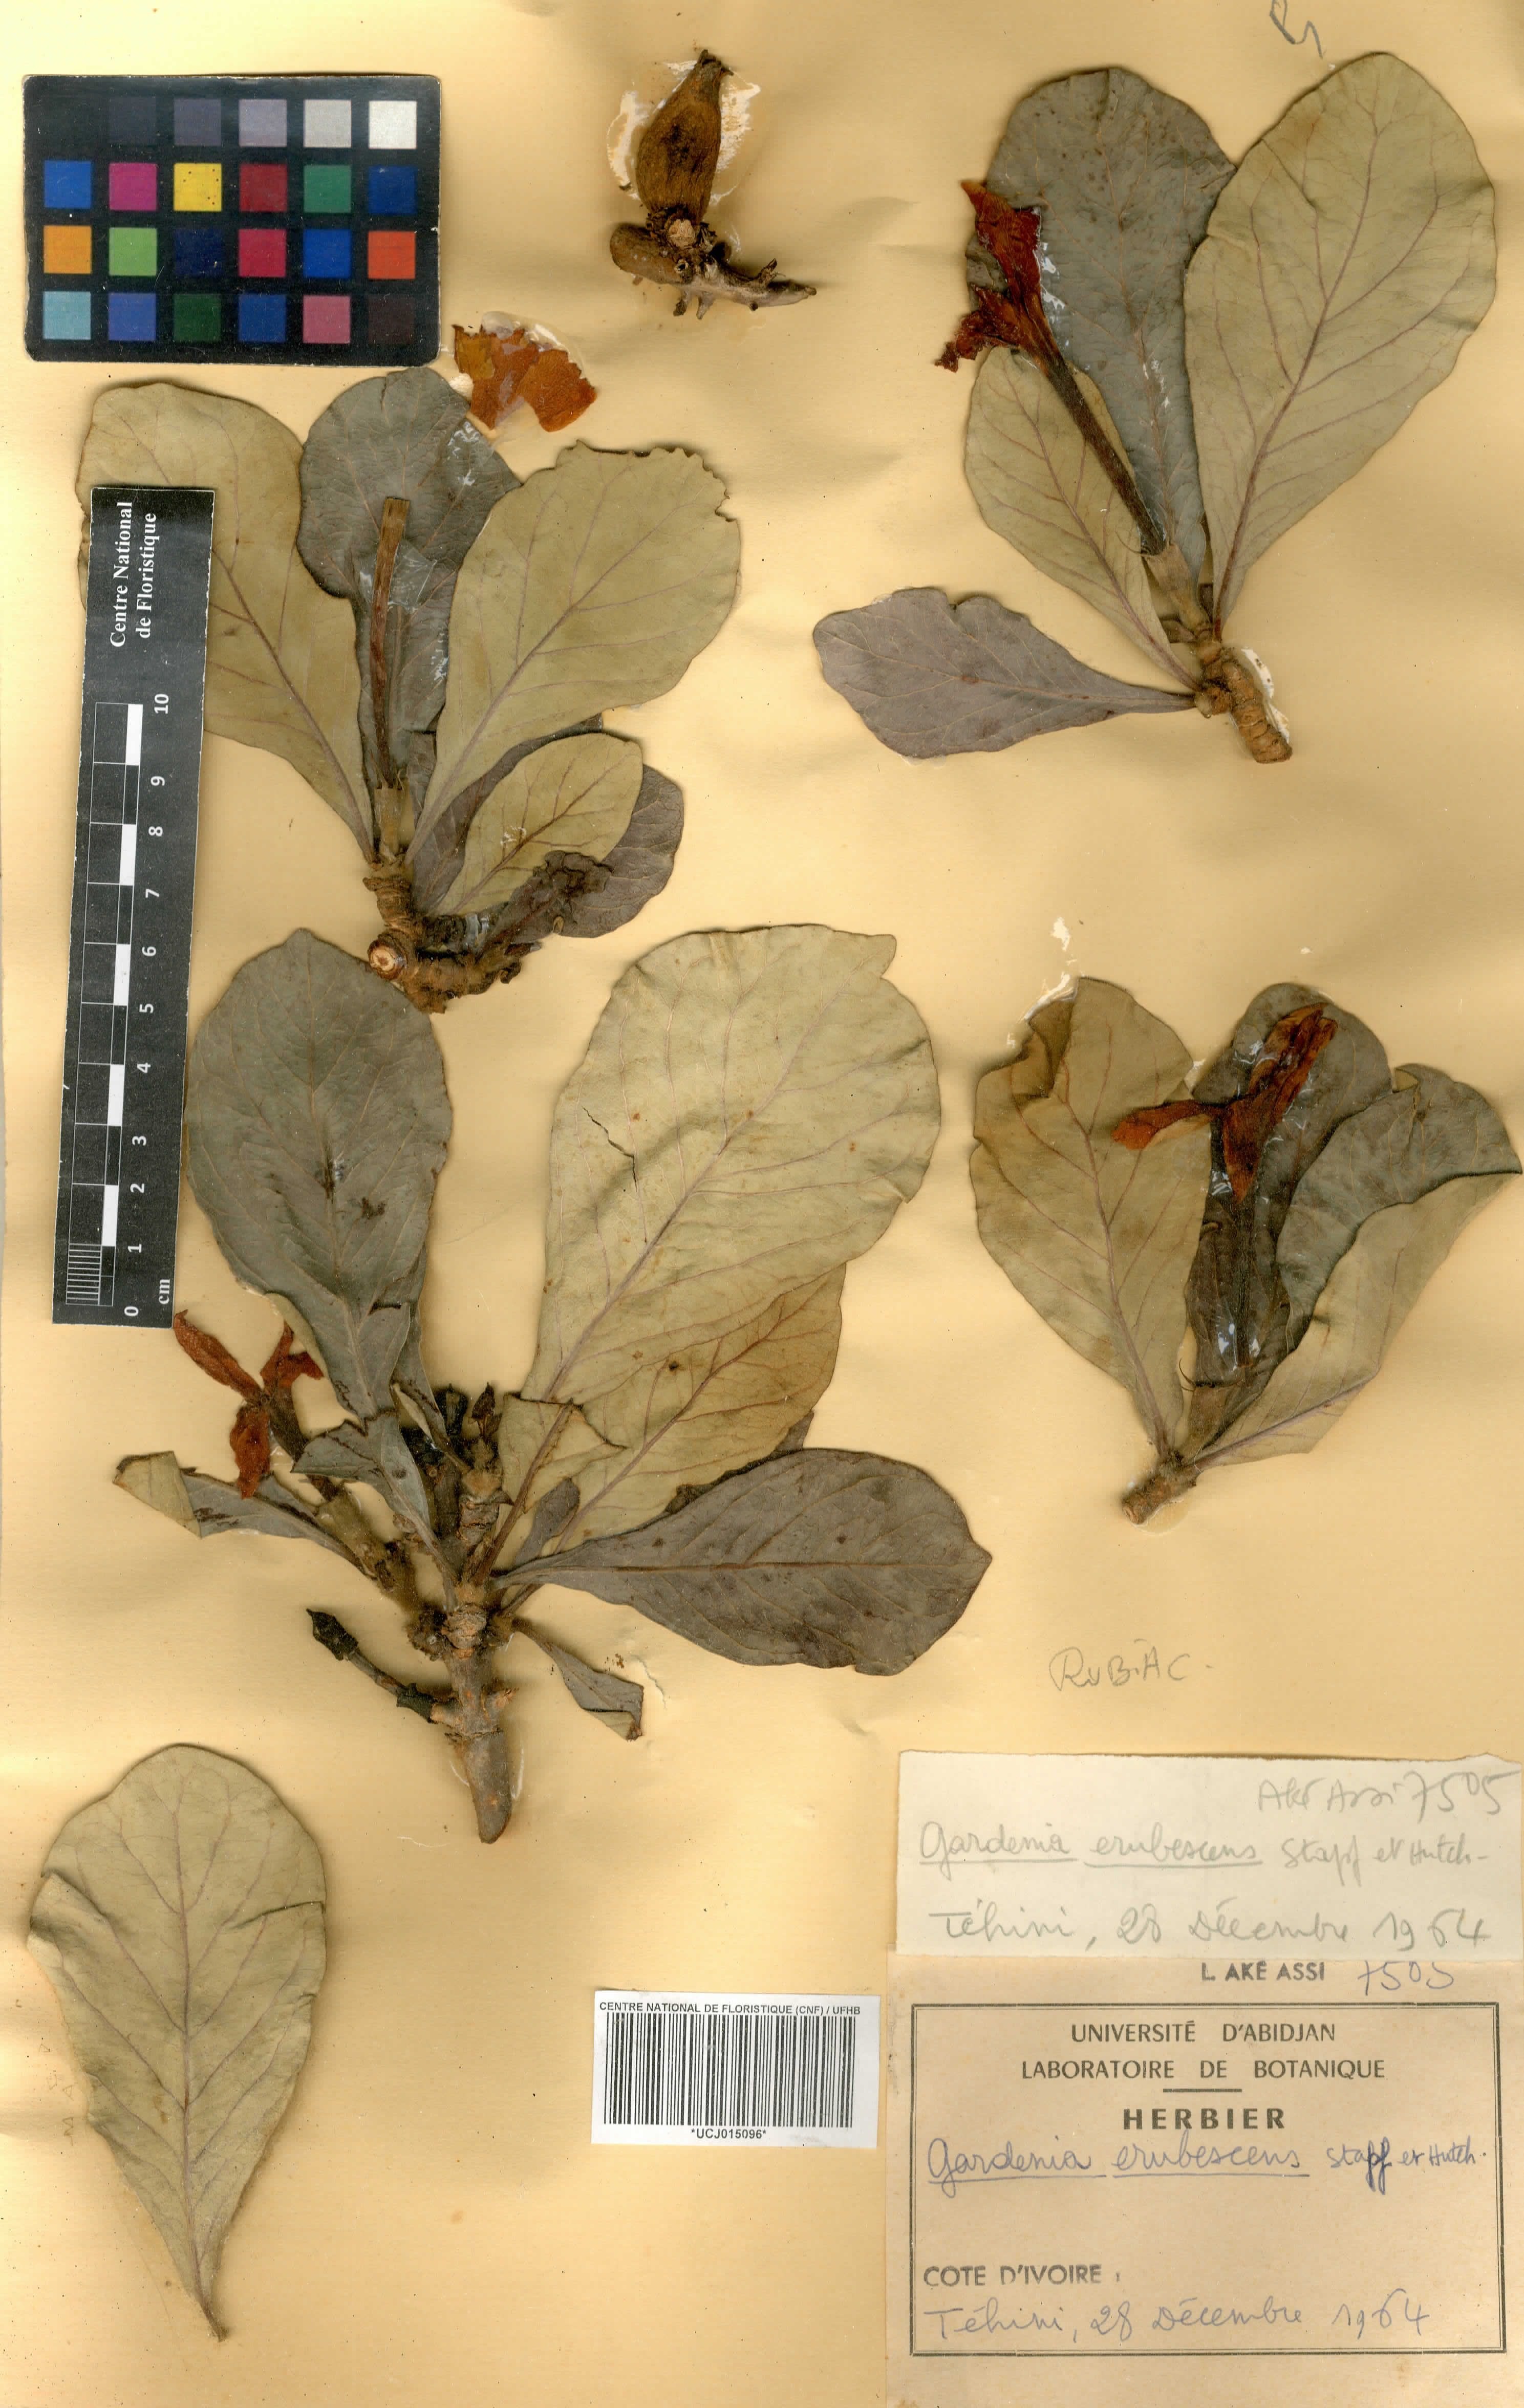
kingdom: Plantae
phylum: Tracheophyta
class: Magnoliopsida
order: Gentianales
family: Rubiaceae
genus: Gardenia
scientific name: Gardenia erubescens
